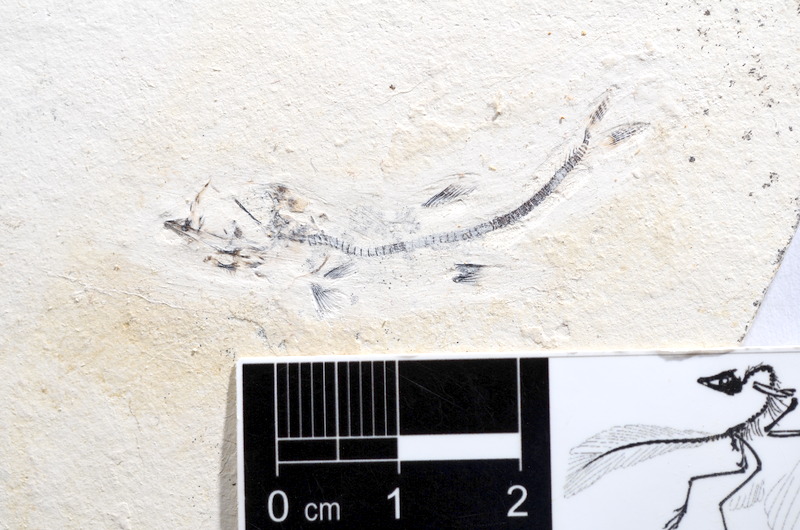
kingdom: Animalia
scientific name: Animalia
